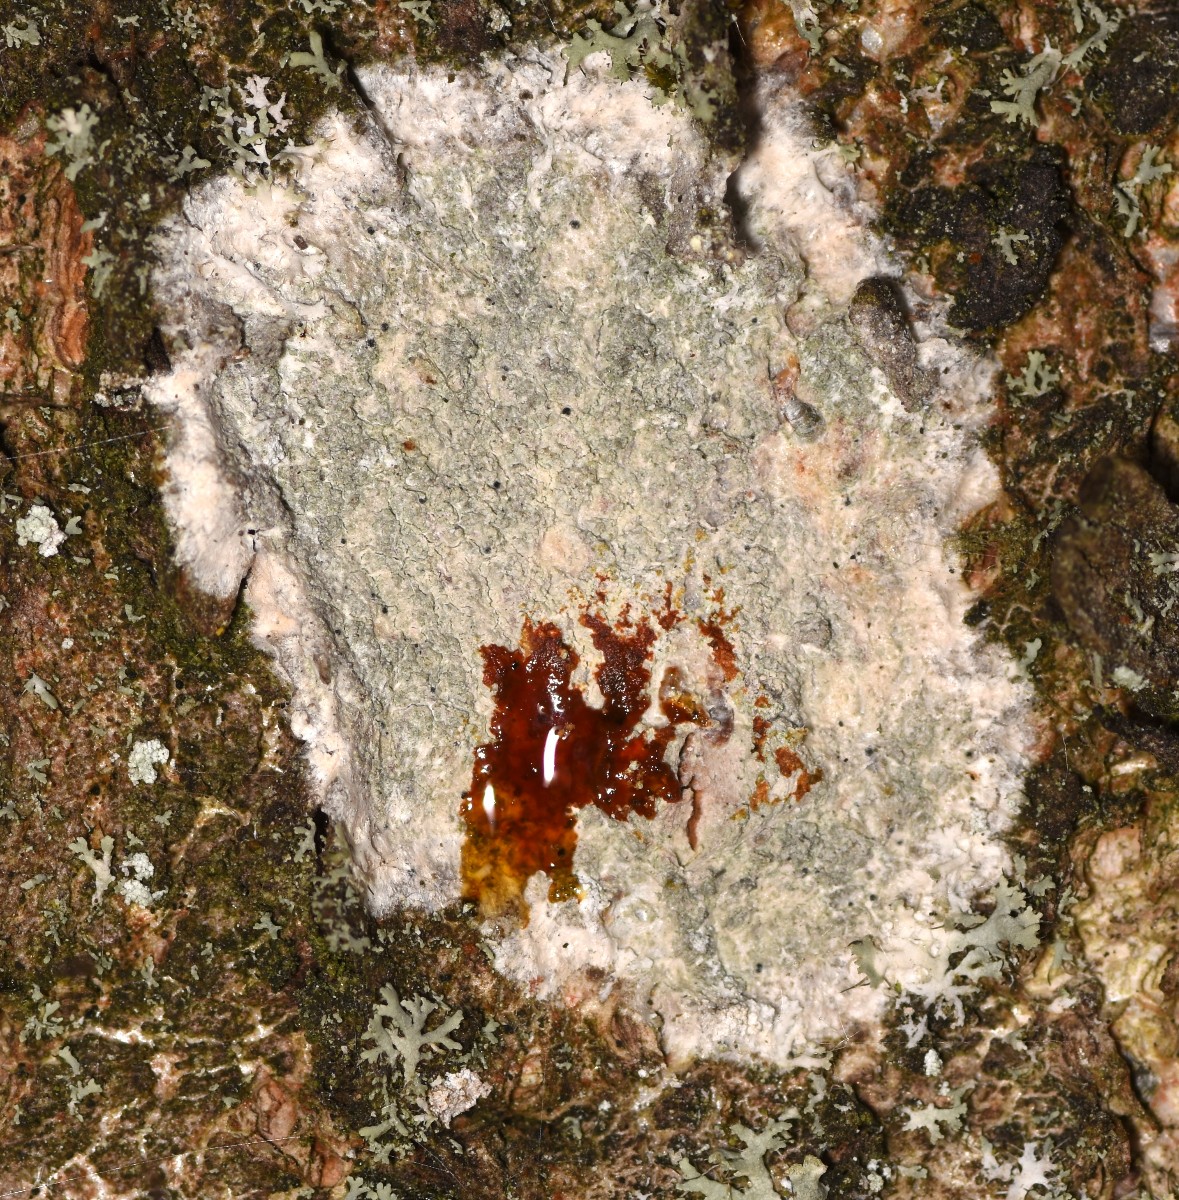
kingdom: Fungi
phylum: Ascomycota
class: Lecanoromycetes
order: Ostropales
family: Phlyctidaceae
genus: Phlyctis
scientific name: Phlyctis argena
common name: almindelig sølvlav
